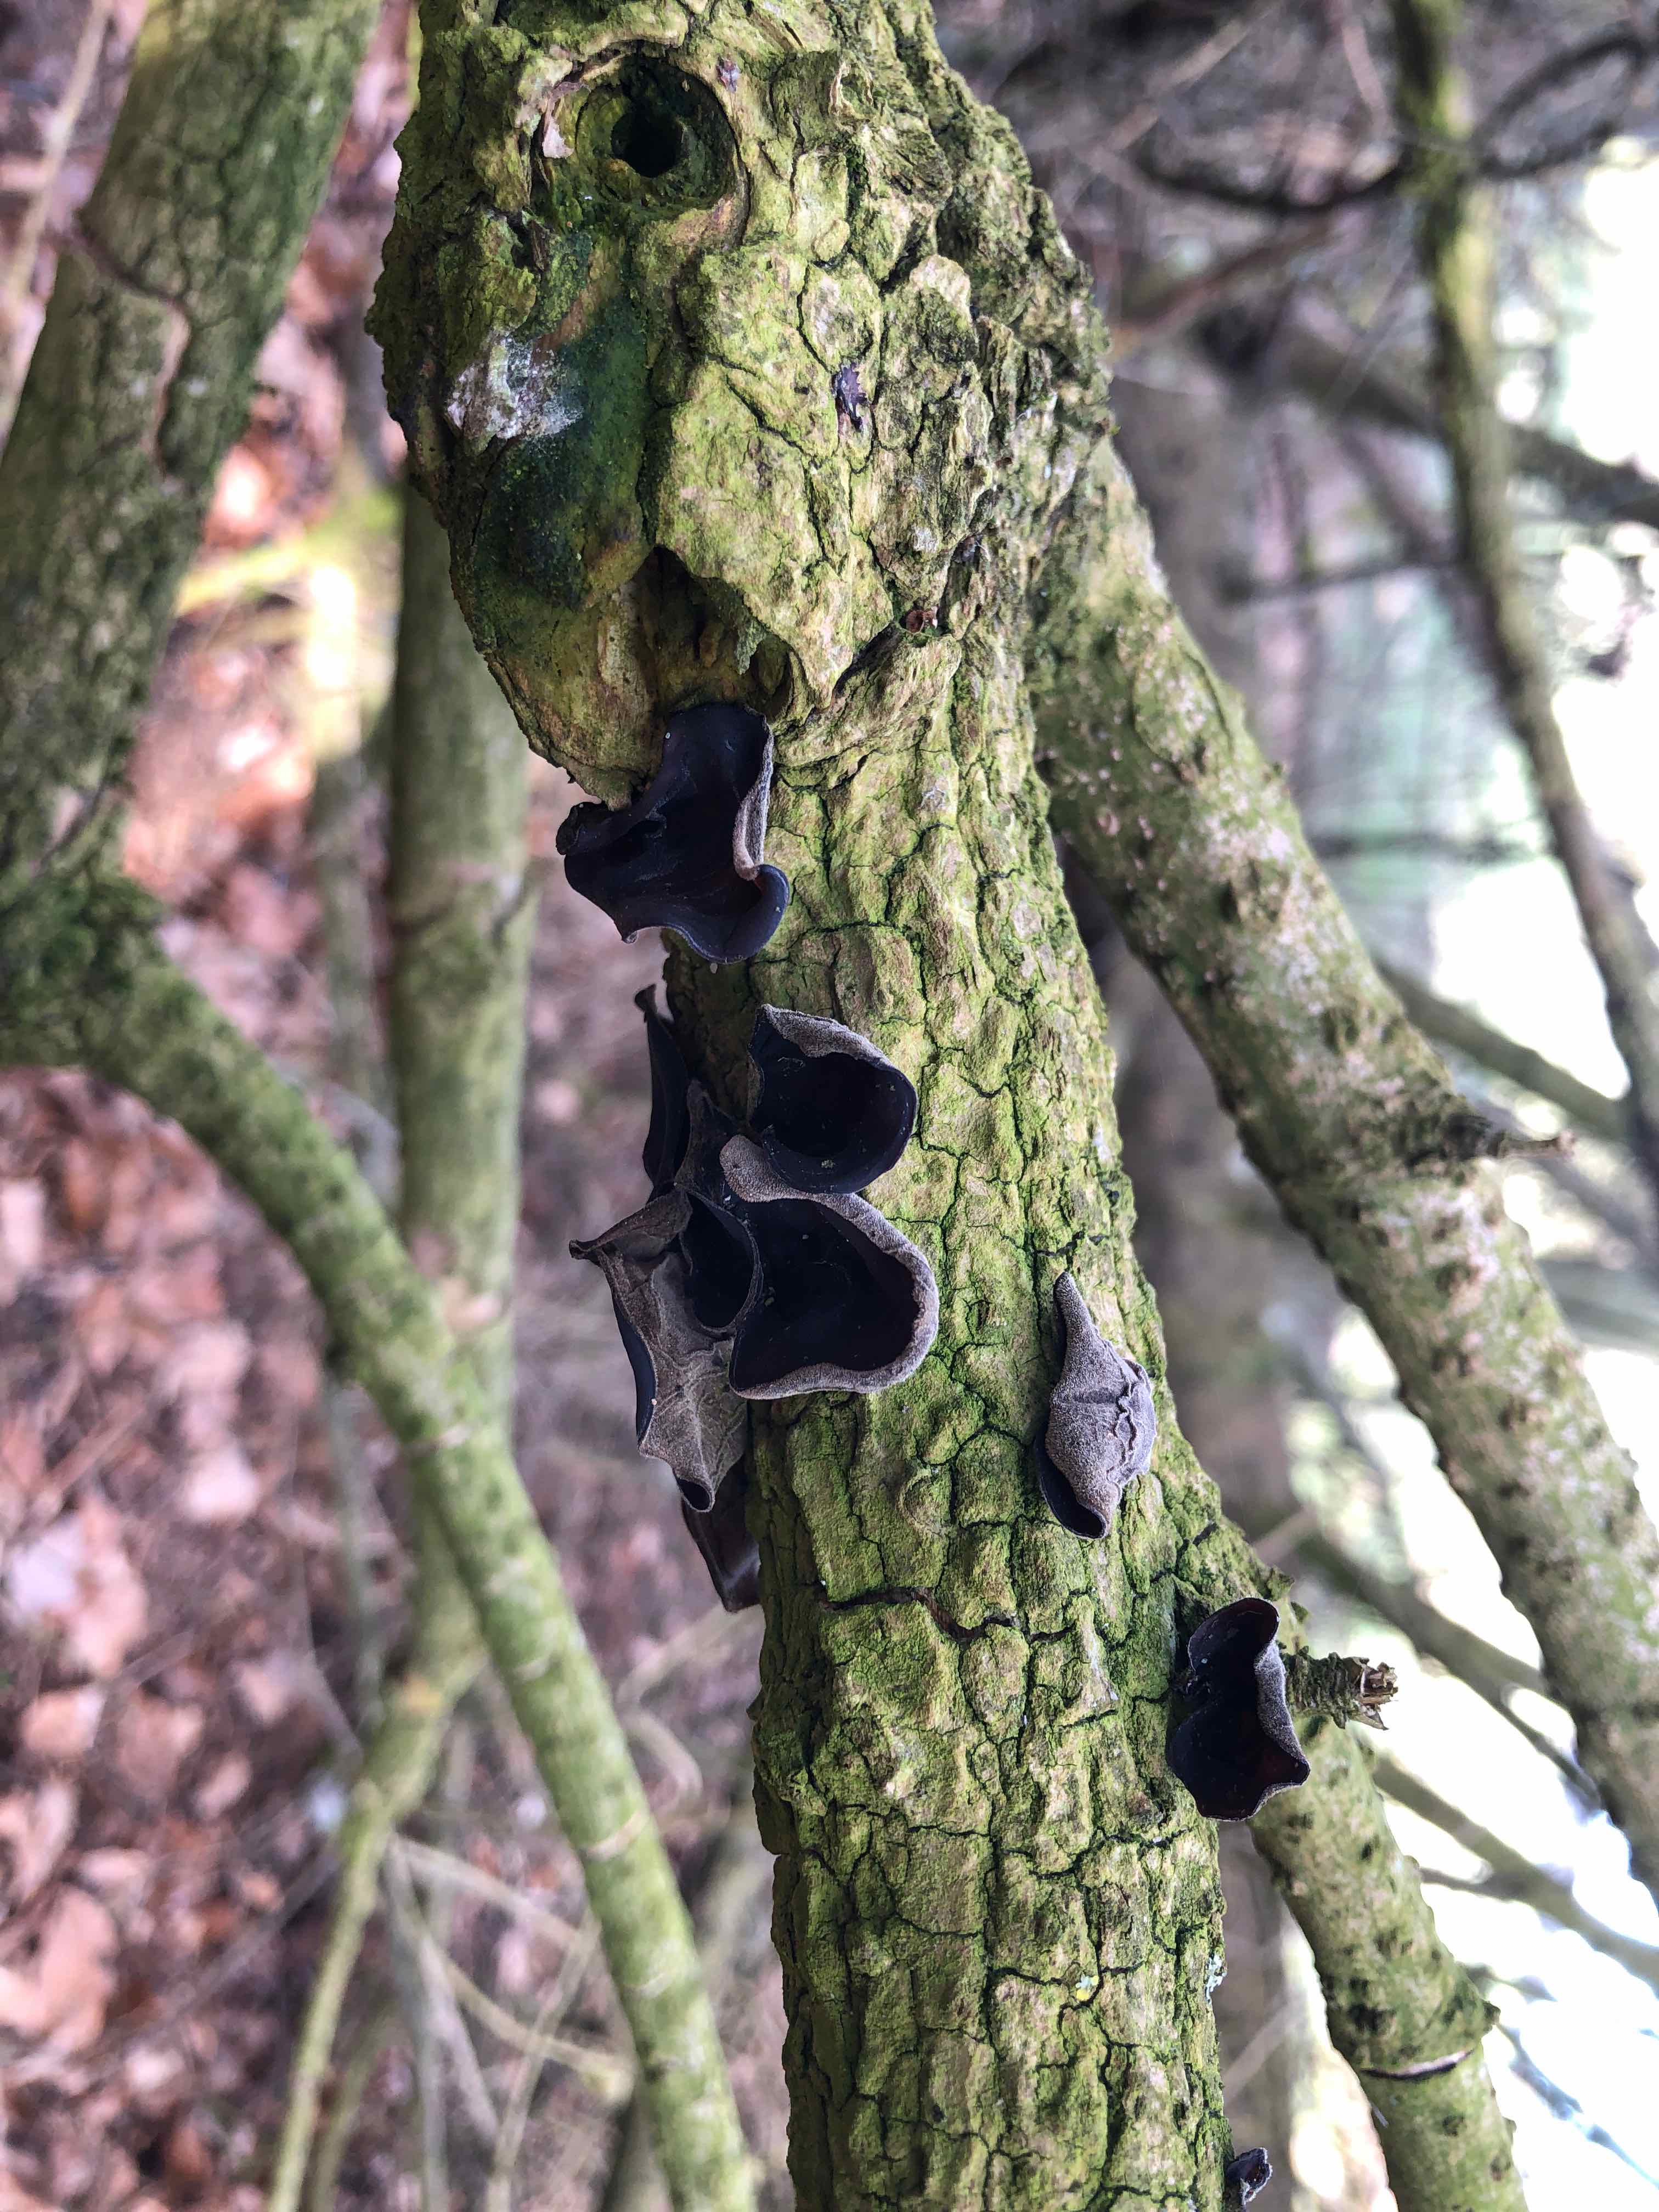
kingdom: Fungi
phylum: Basidiomycota
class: Agaricomycetes
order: Auriculariales
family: Auriculariaceae
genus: Auricularia
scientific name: Auricularia auricula-judae
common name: almindelig judasøre
